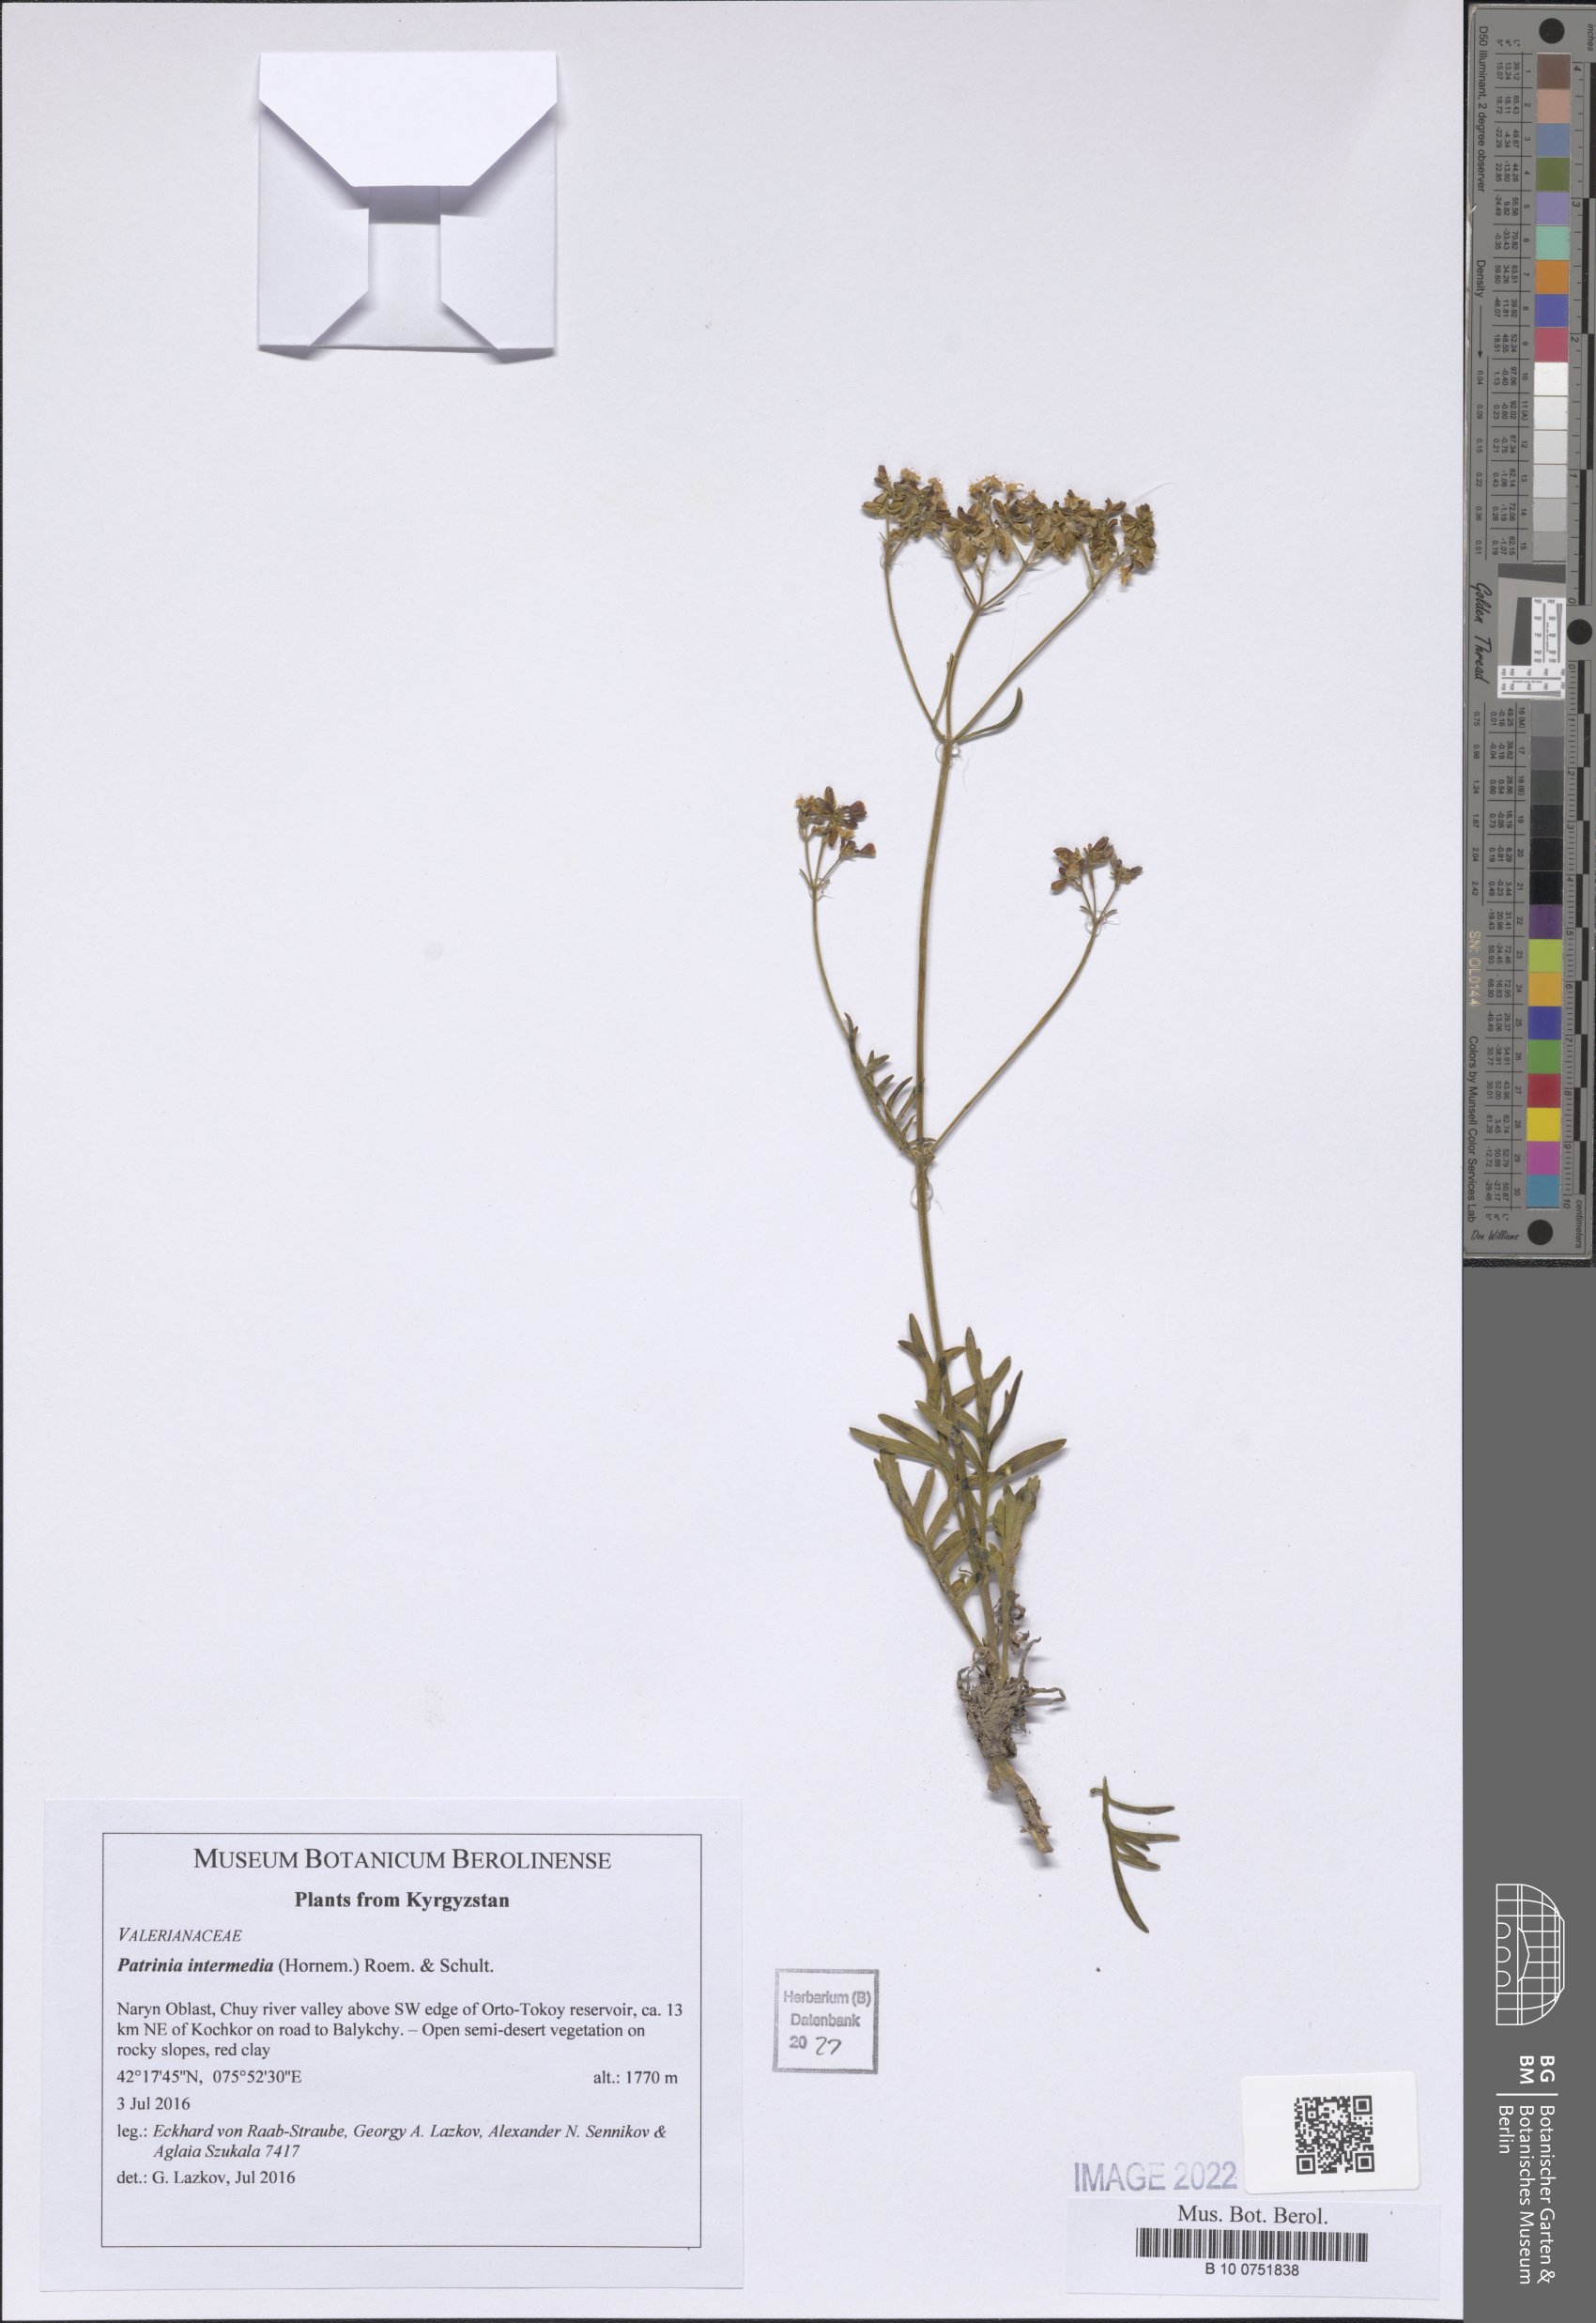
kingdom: Plantae
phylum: Tracheophyta
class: Magnoliopsida
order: Dipsacales
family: Caprifoliaceae
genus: Patrinia
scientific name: Patrinia intermedia
